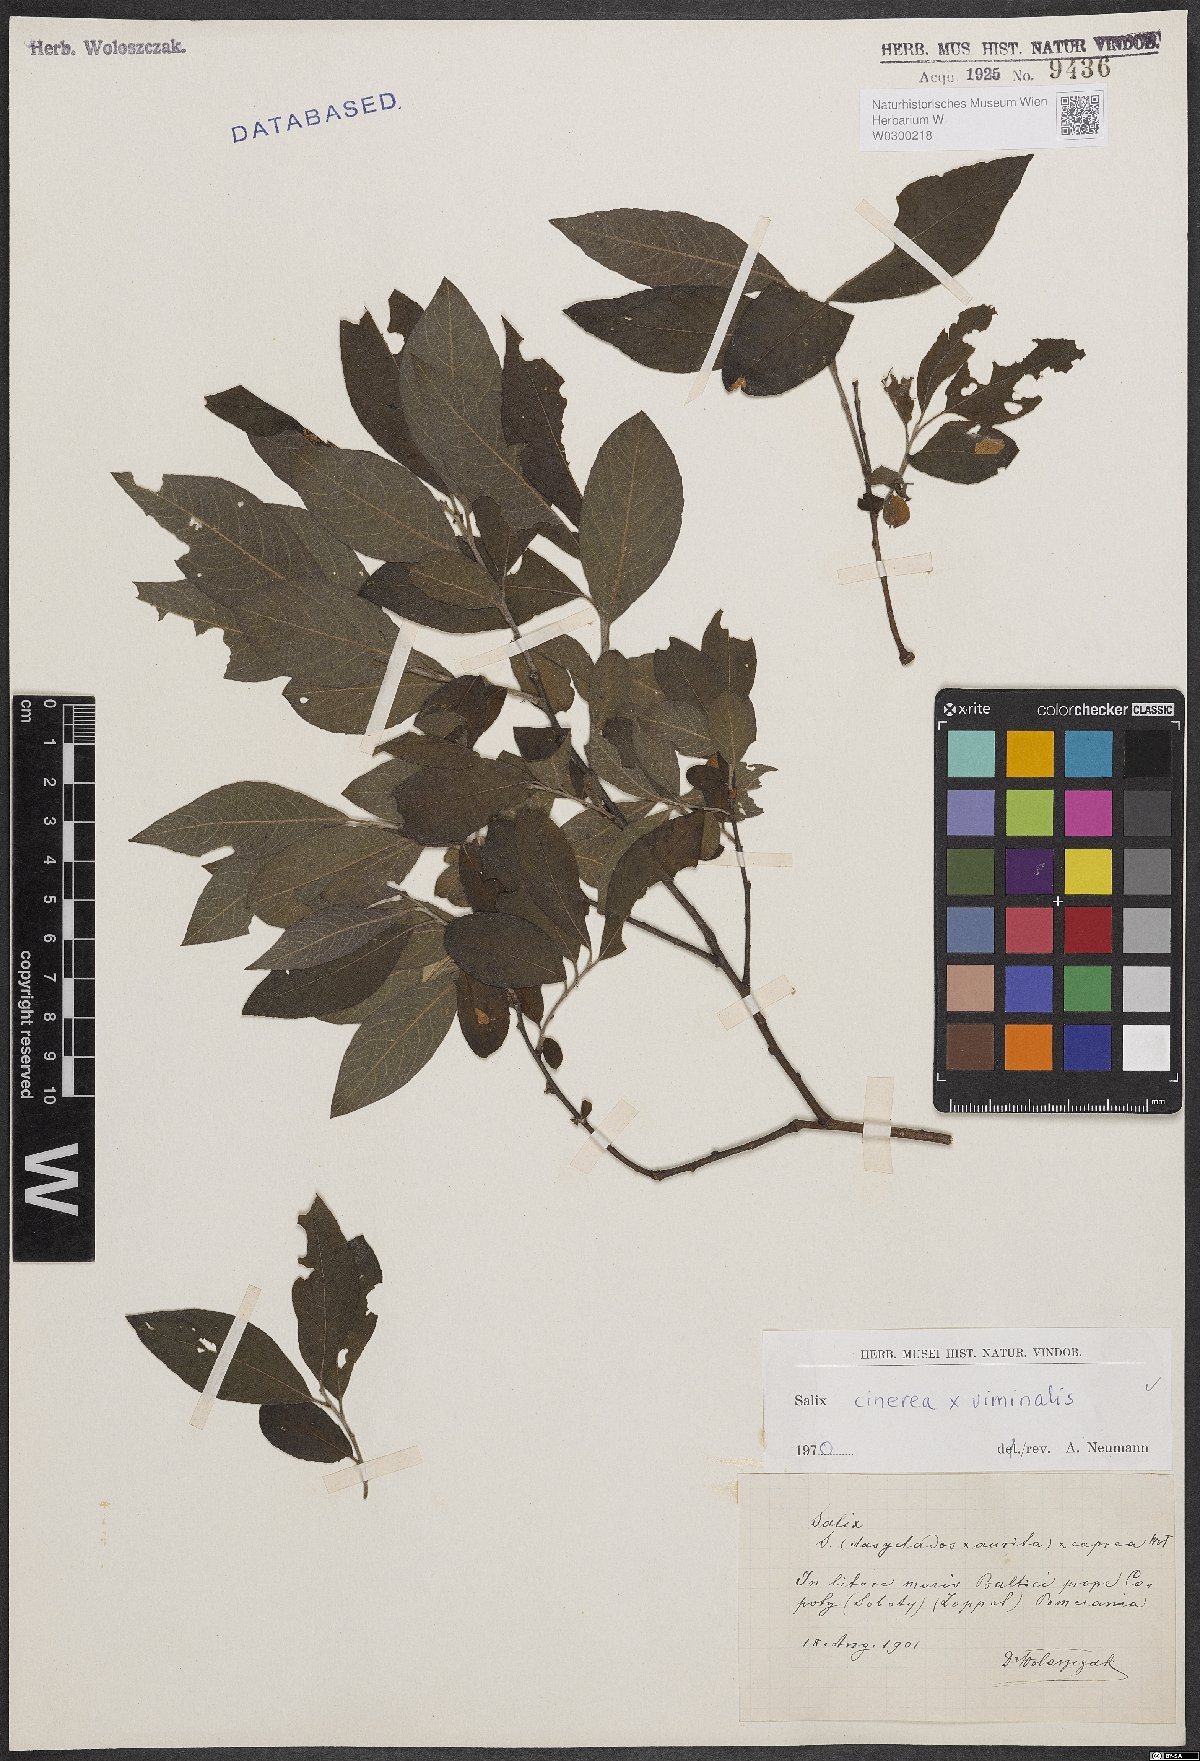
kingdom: Plantae
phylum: Tracheophyta
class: Magnoliopsida
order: Malpighiales
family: Salicaceae
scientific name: Salicaceae
